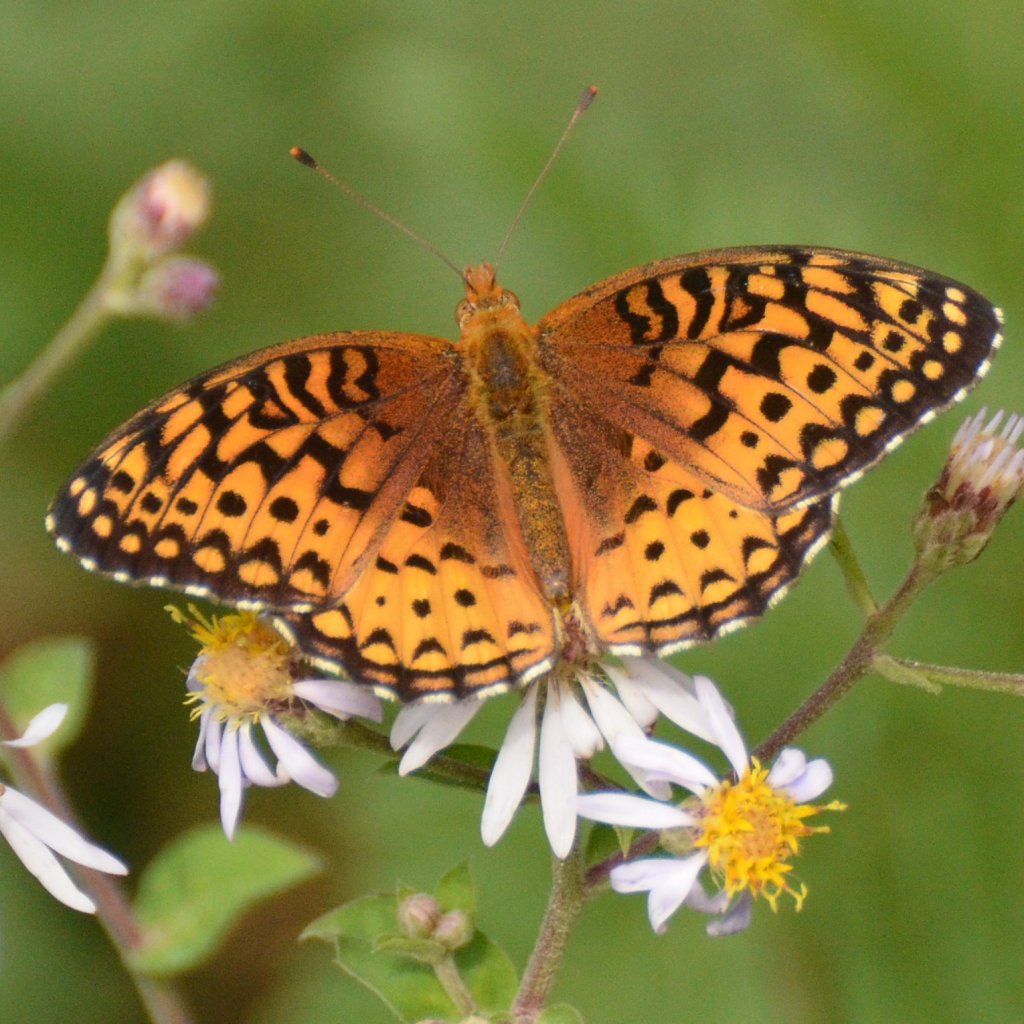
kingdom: Animalia
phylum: Arthropoda
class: Insecta
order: Lepidoptera
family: Nymphalidae
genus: Speyeria
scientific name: Speyeria aphrodite
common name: Aphrodite Fritillary
